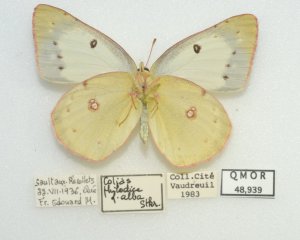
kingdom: Animalia
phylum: Arthropoda
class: Insecta
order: Lepidoptera
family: Pieridae
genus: Colias
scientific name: Colias philodice
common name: Clouded Sulphur
